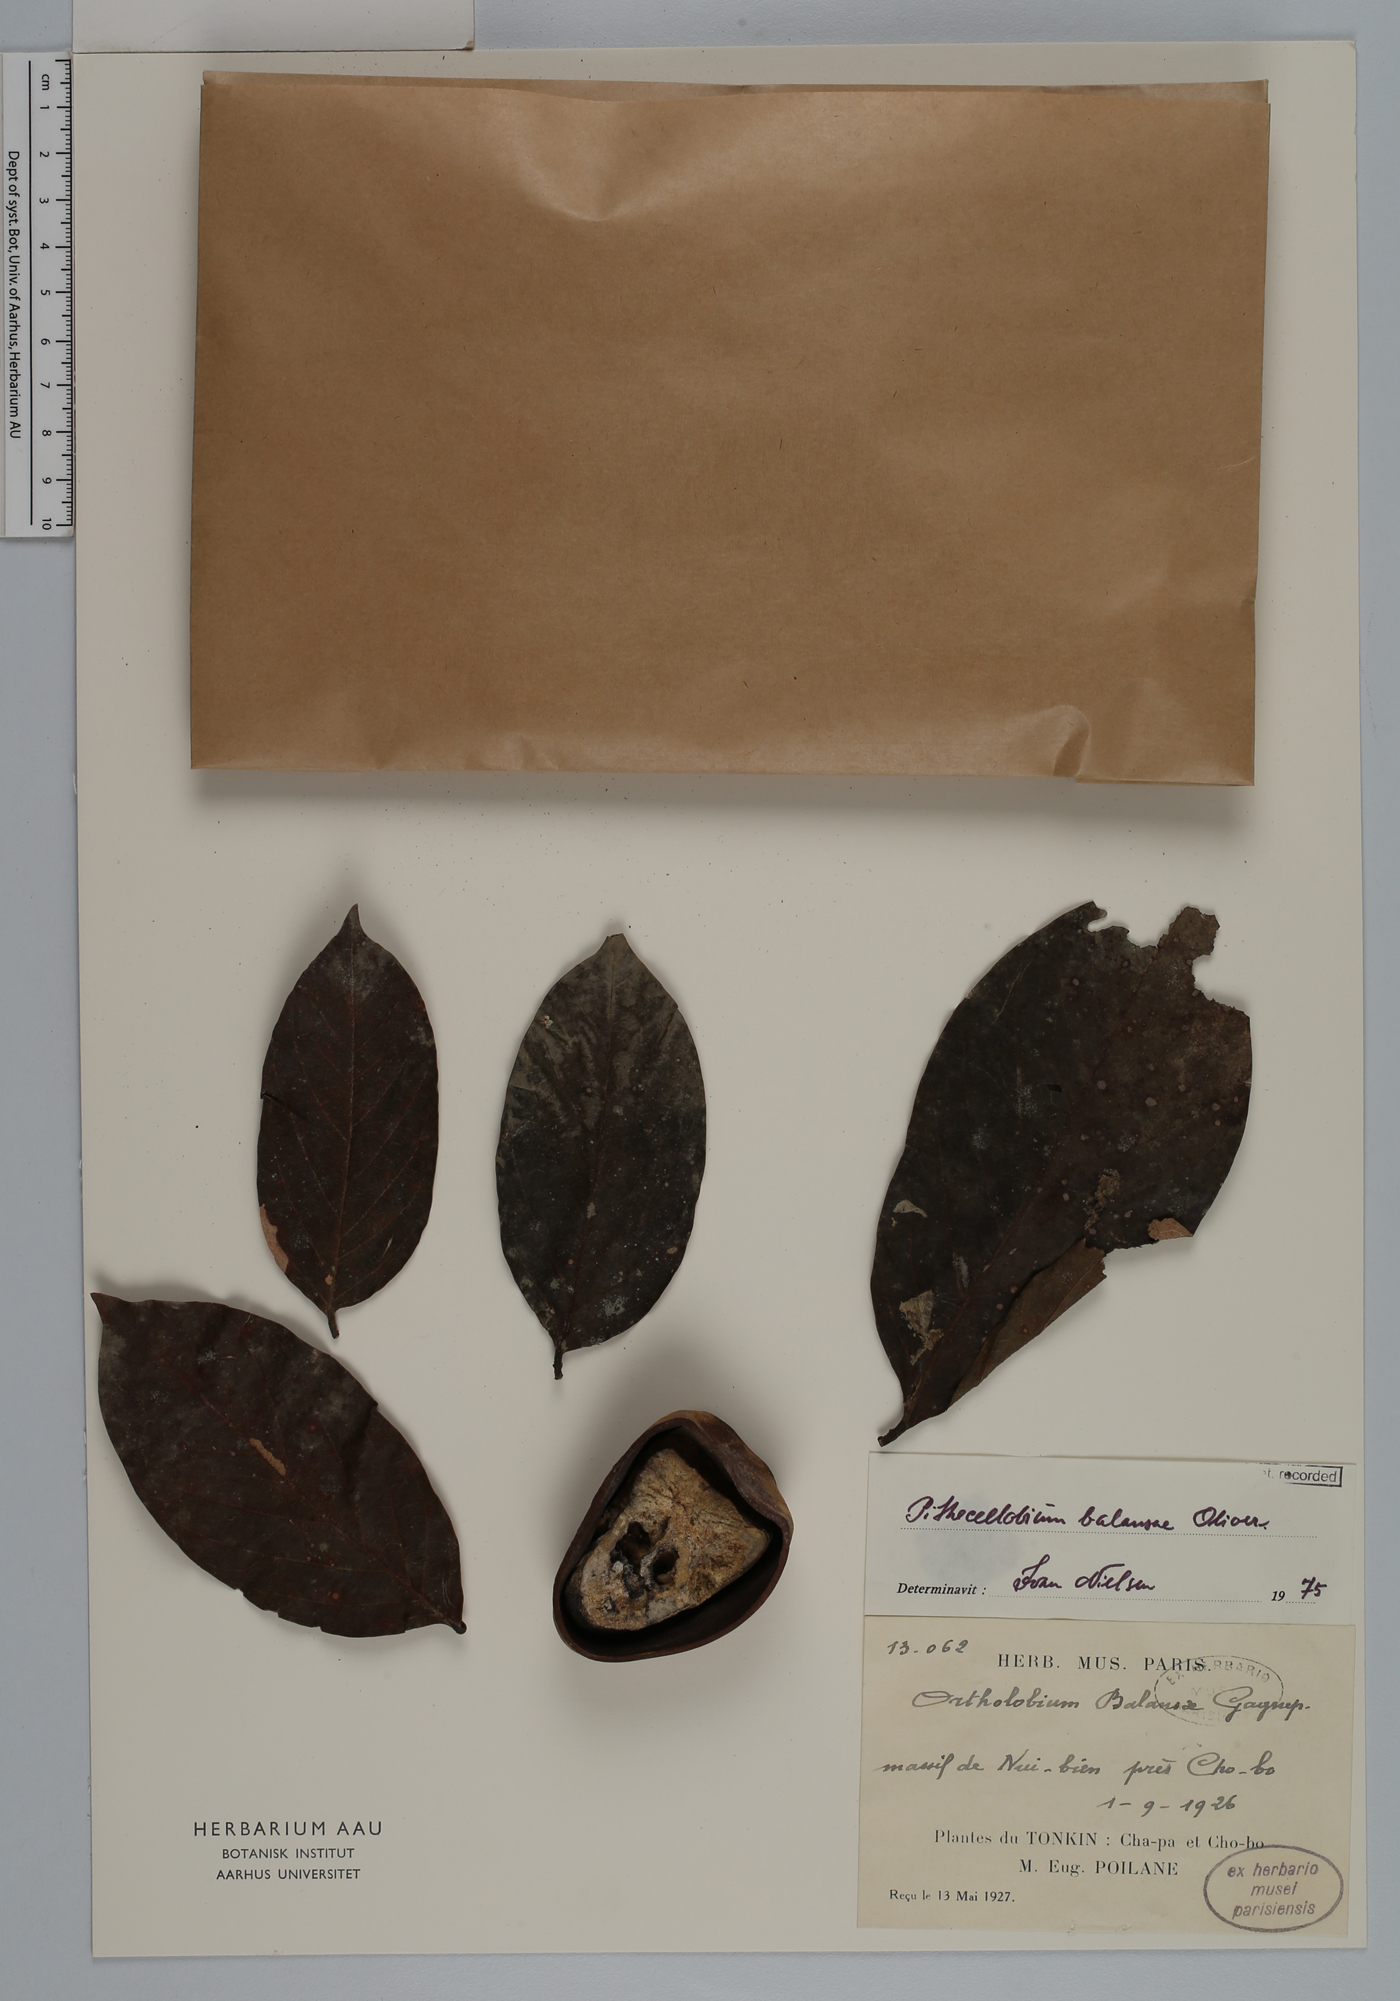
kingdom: Plantae
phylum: Tracheophyta
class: Magnoliopsida
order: Fabales
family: Fabaceae
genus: Archidendron
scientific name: Archidendron balansae
